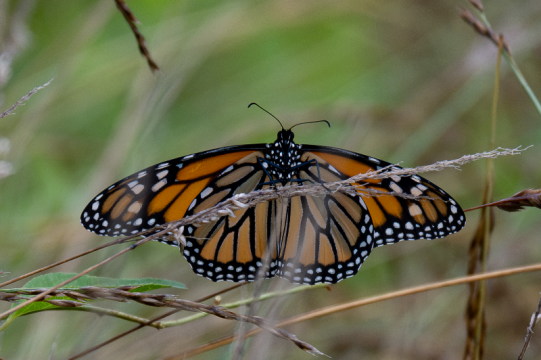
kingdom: Animalia
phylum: Arthropoda
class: Insecta
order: Lepidoptera
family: Nymphalidae
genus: Danaus
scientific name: Danaus plexippus
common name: Monarch
